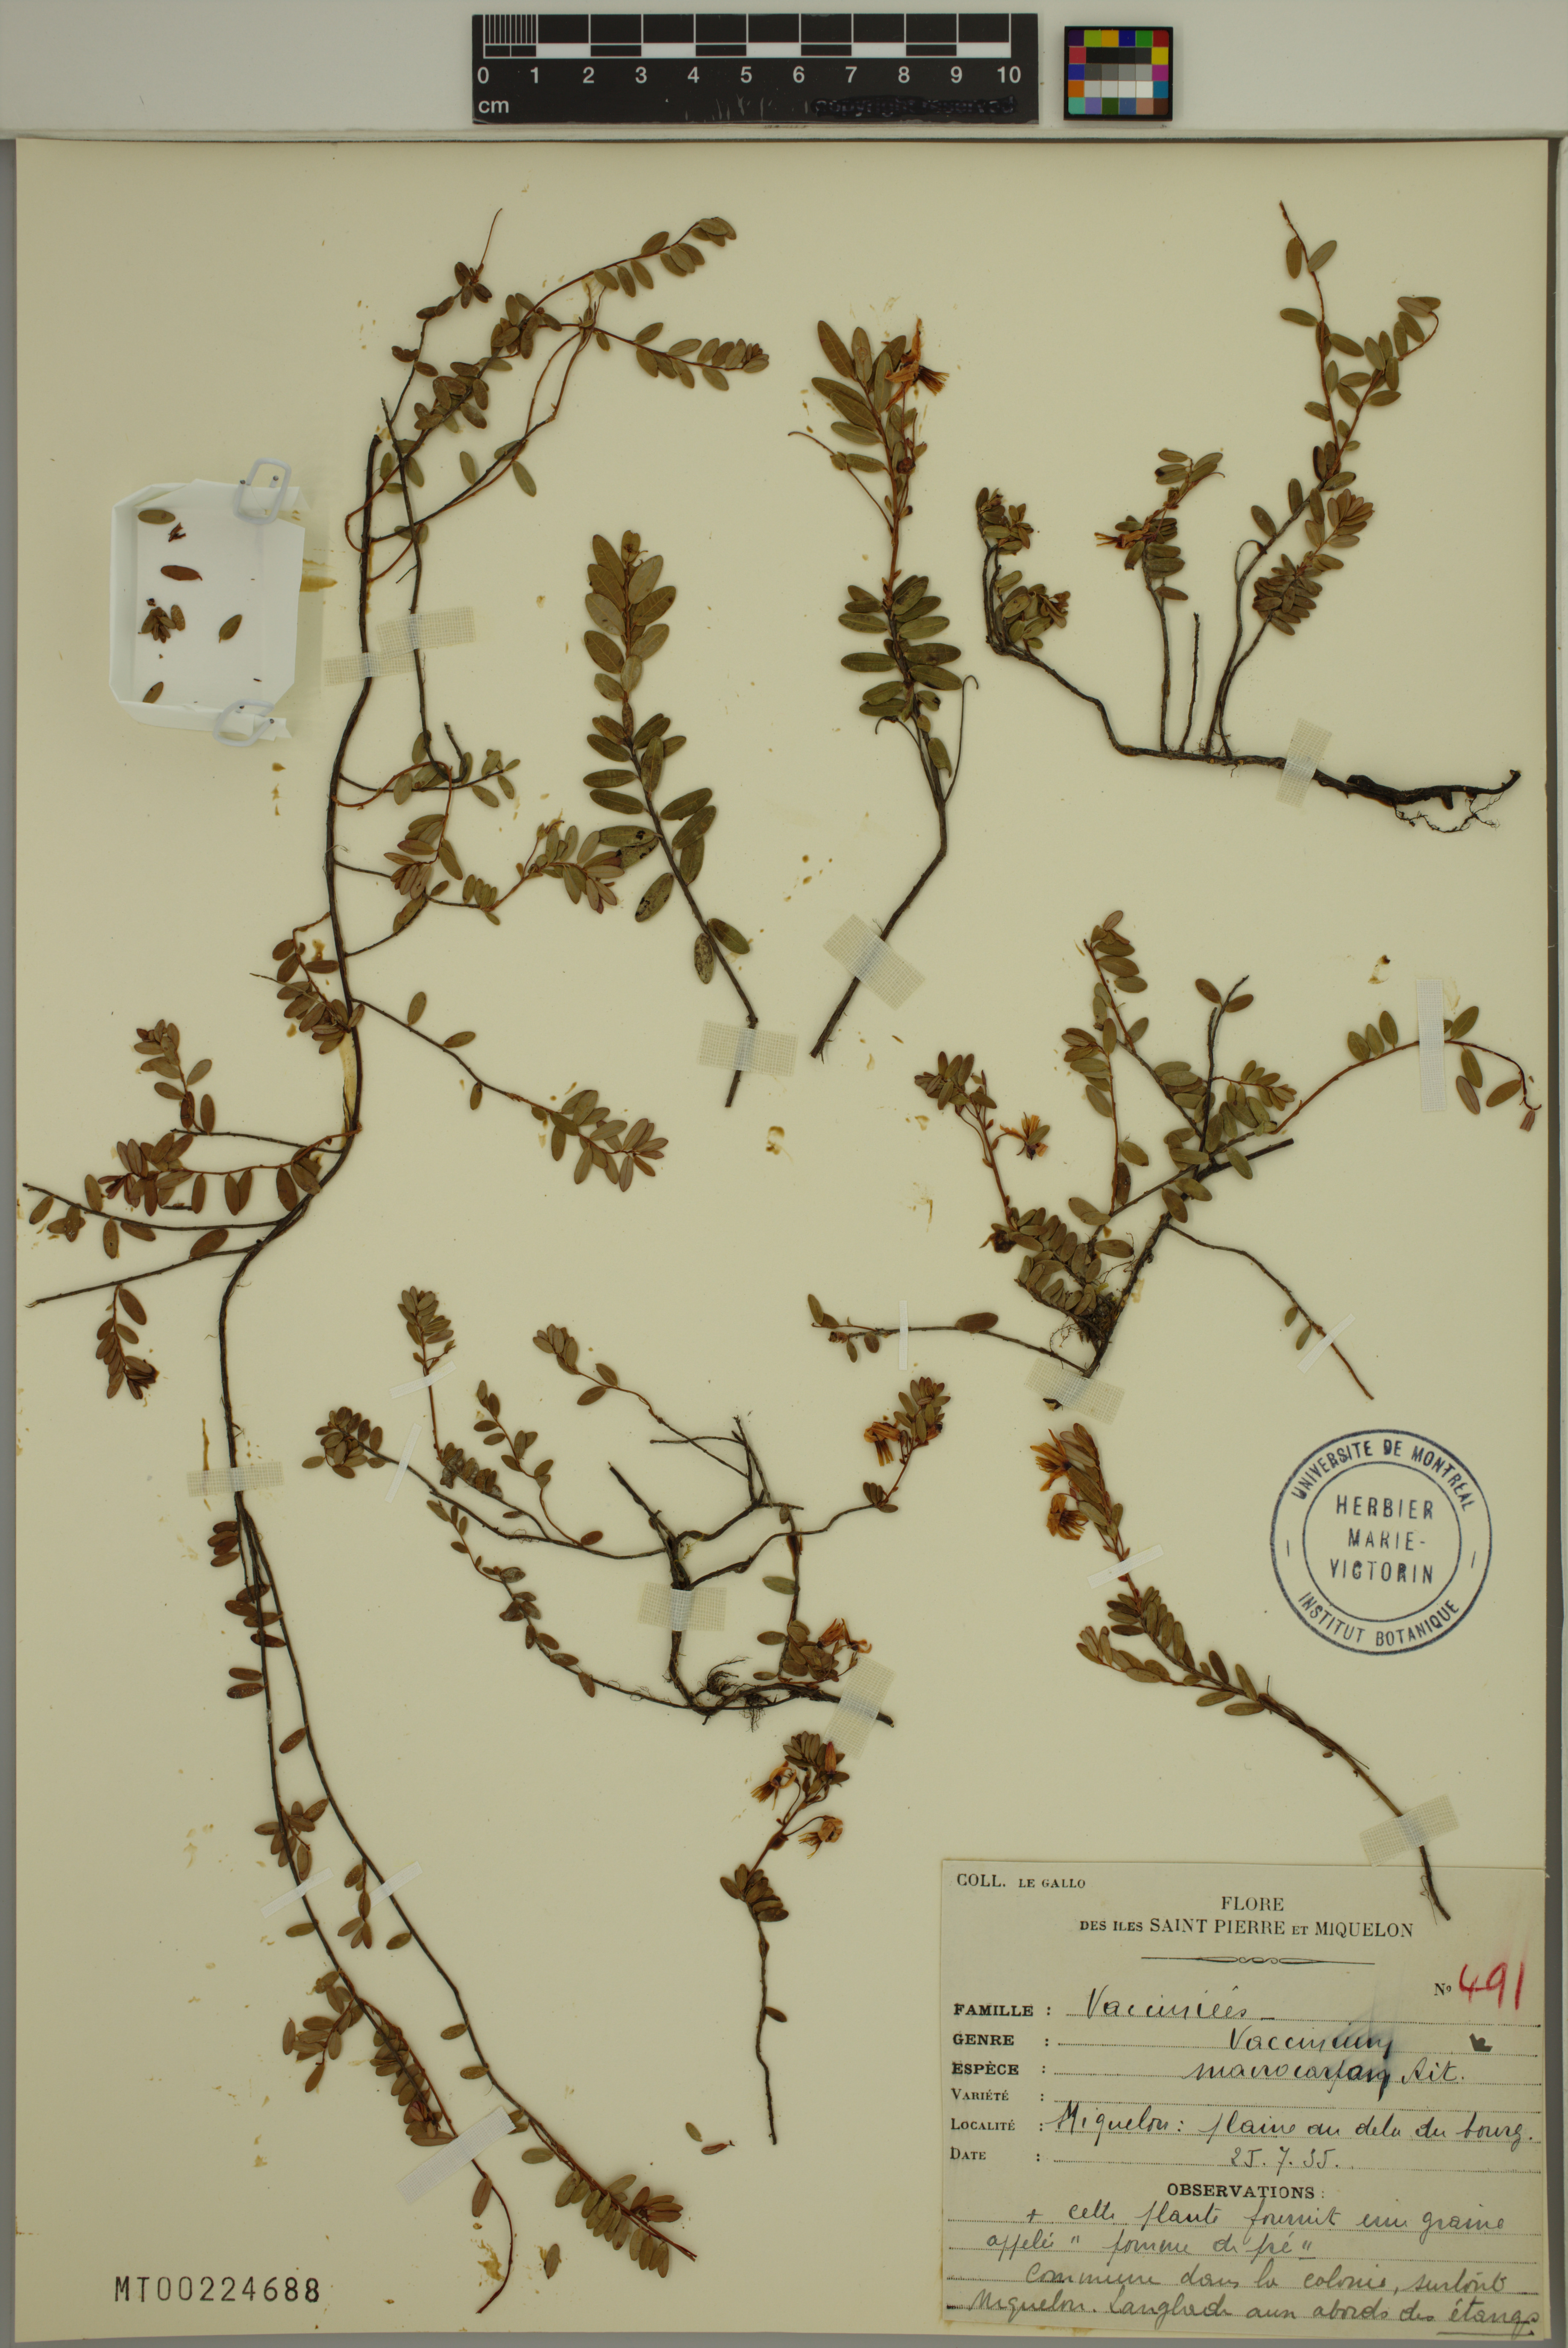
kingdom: Plantae
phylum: Tracheophyta
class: Magnoliopsida
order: Ericales
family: Ericaceae
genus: Vaccinium
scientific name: Vaccinium macrocarpon
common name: American cranberry
